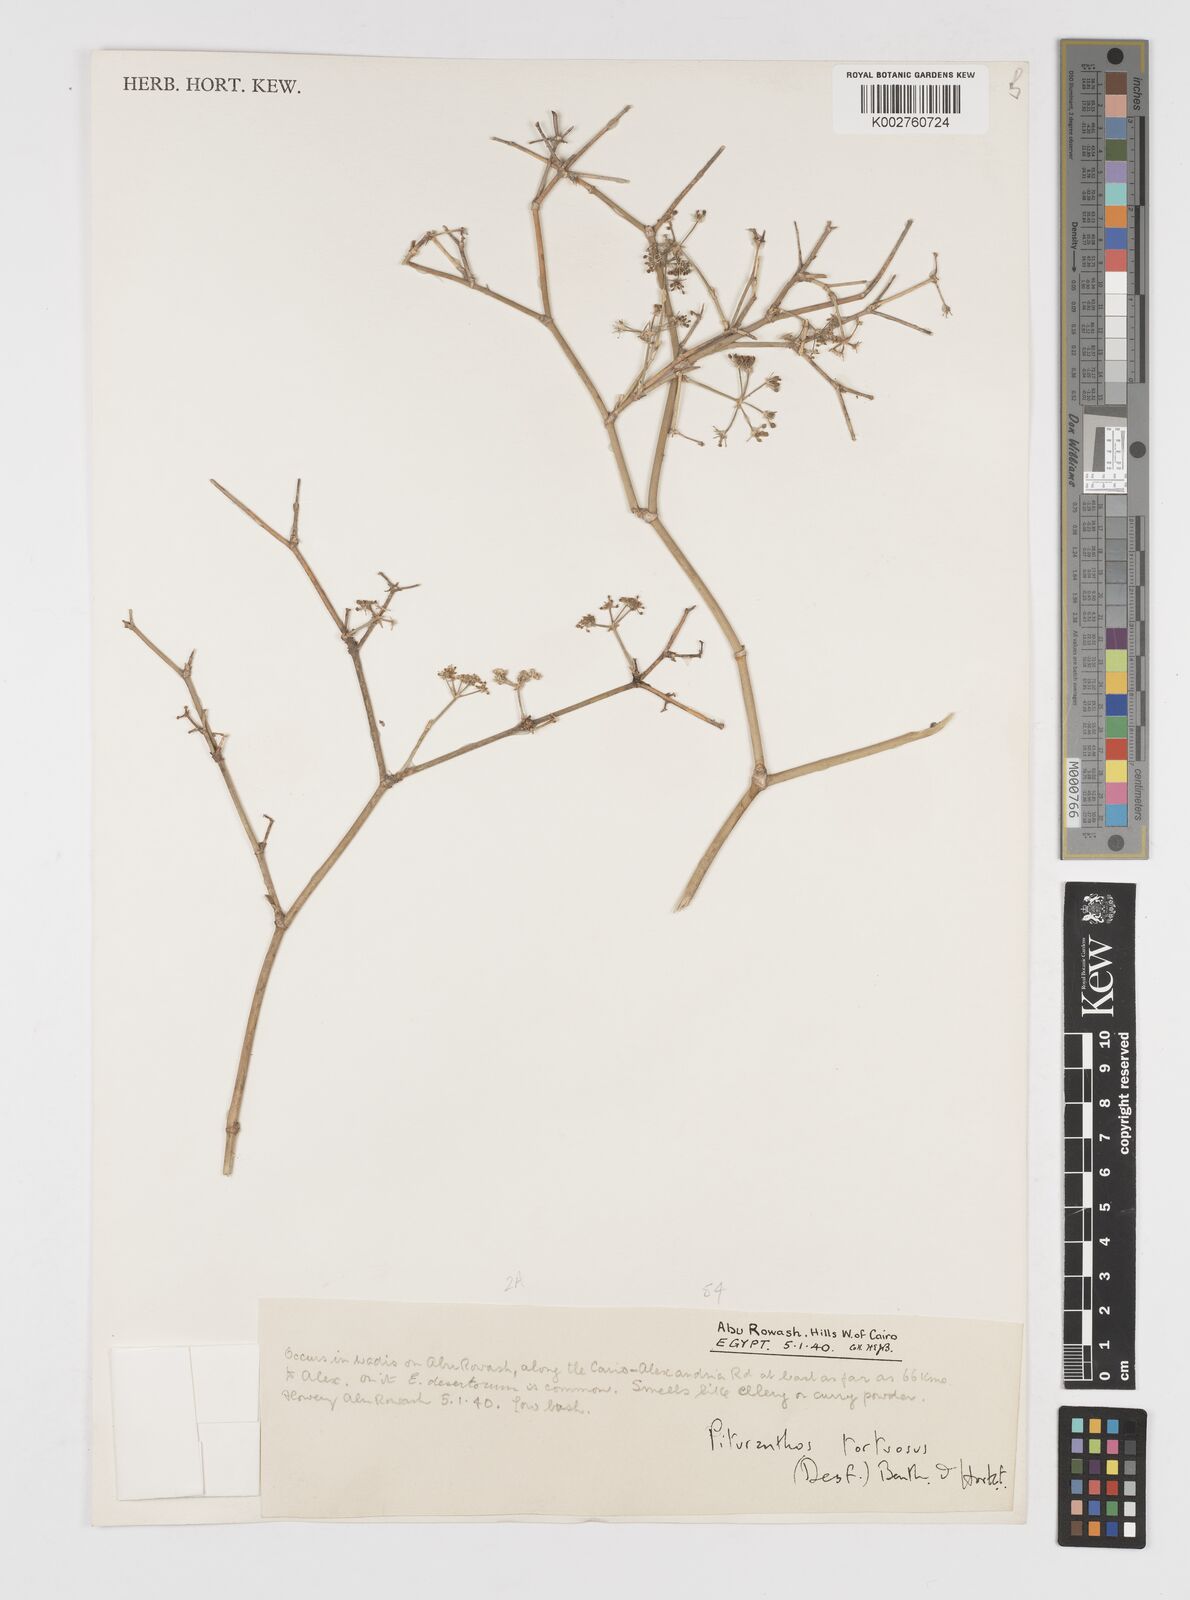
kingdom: Plantae
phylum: Tracheophyta
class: Magnoliopsida
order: Apiales
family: Apiaceae
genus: Deverra
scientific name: Deverra tortuosa
